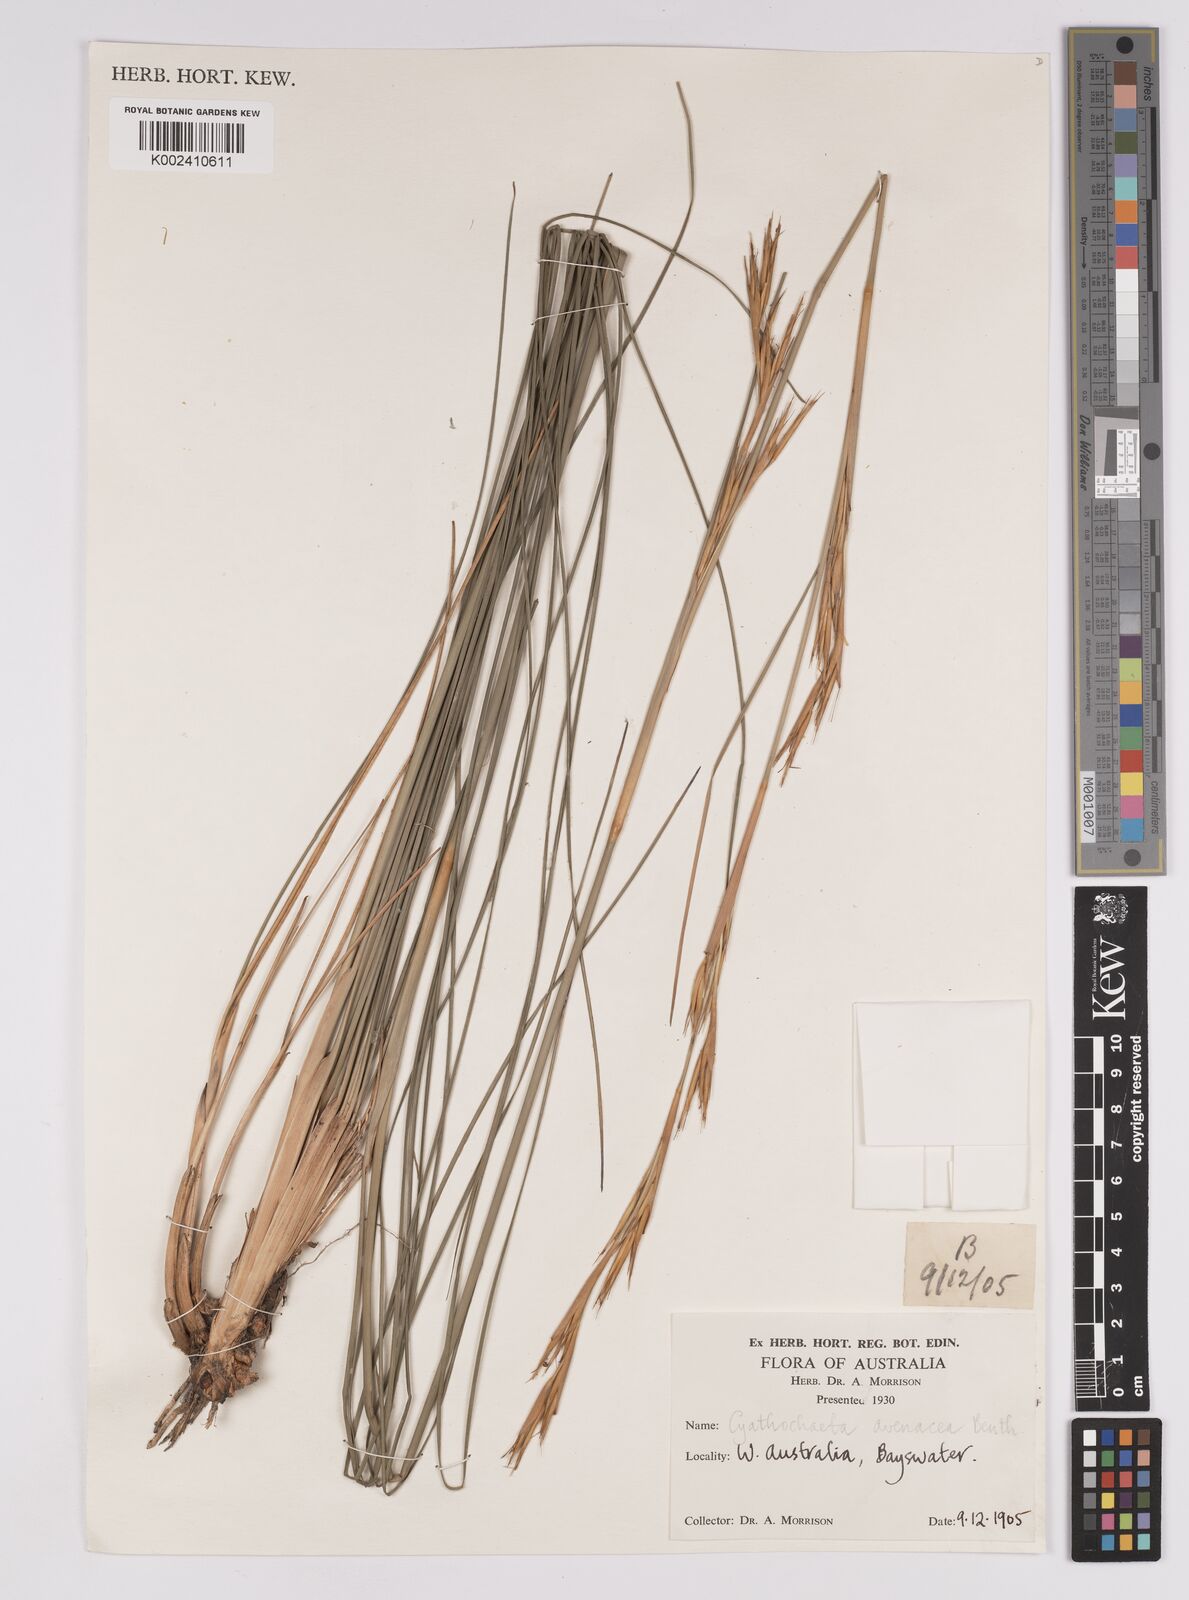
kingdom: Plantae
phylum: Tracheophyta
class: Liliopsida
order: Poales
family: Cyperaceae
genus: Cyathochaeta
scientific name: Cyathochaeta avenacea
